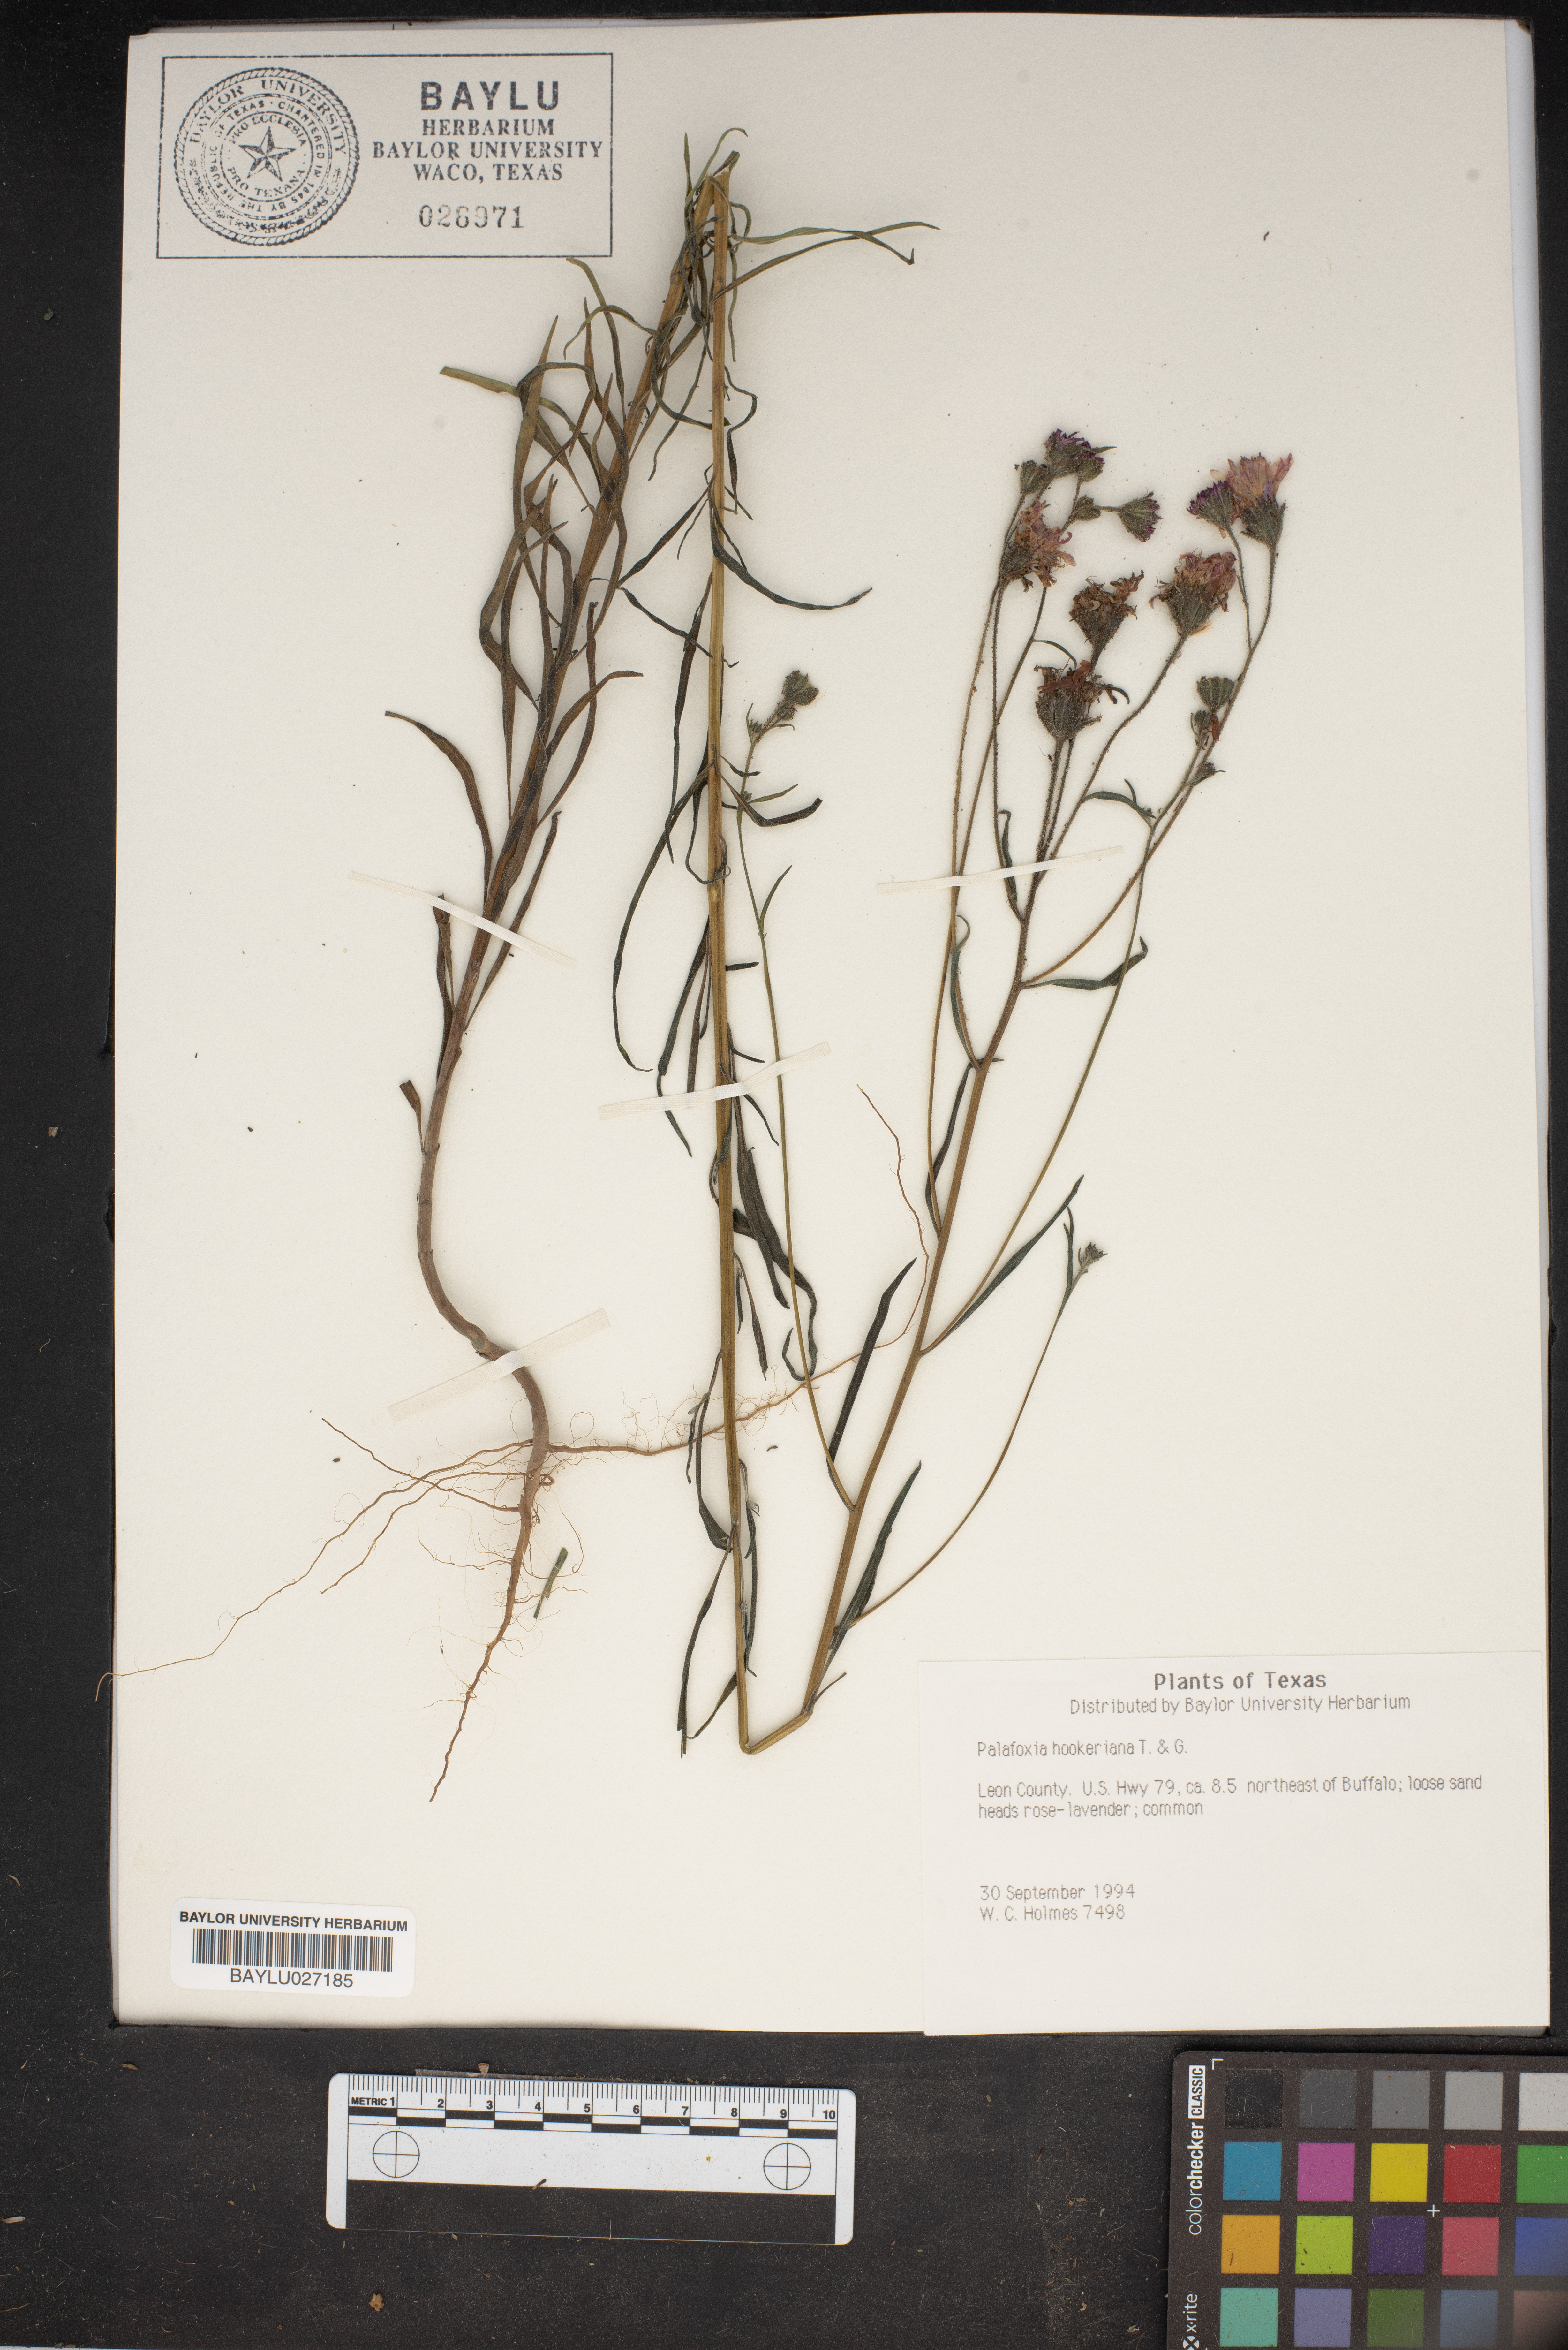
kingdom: Plantae
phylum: Tracheophyta
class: Magnoliopsida
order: Asterales
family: Asteraceae
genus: Palafoxia
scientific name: Palafoxia hookeriana
